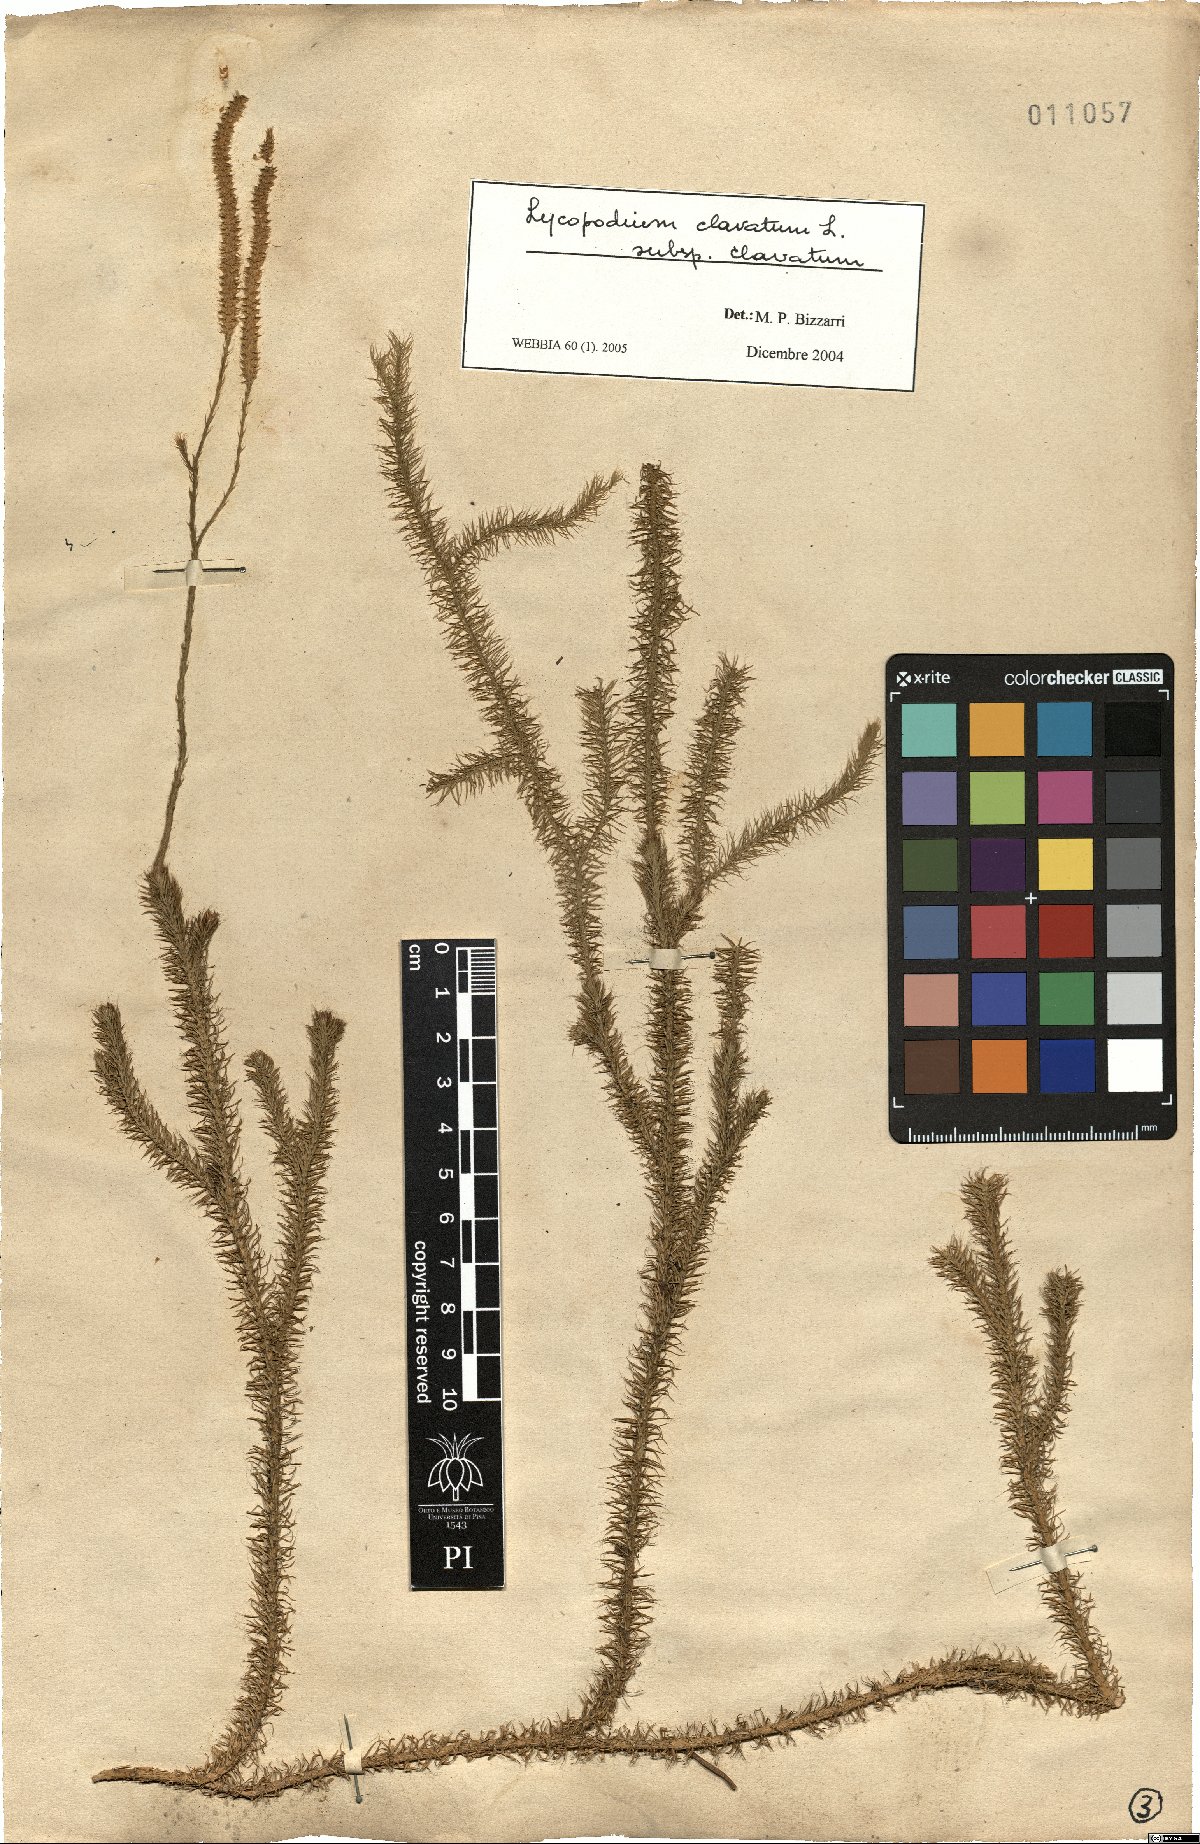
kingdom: Plantae
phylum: Tracheophyta
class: Lycopodiopsida
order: Lycopodiales
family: Lycopodiaceae
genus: Lycopodium
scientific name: Lycopodium clavatum
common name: Stag's-horn clubmoss
